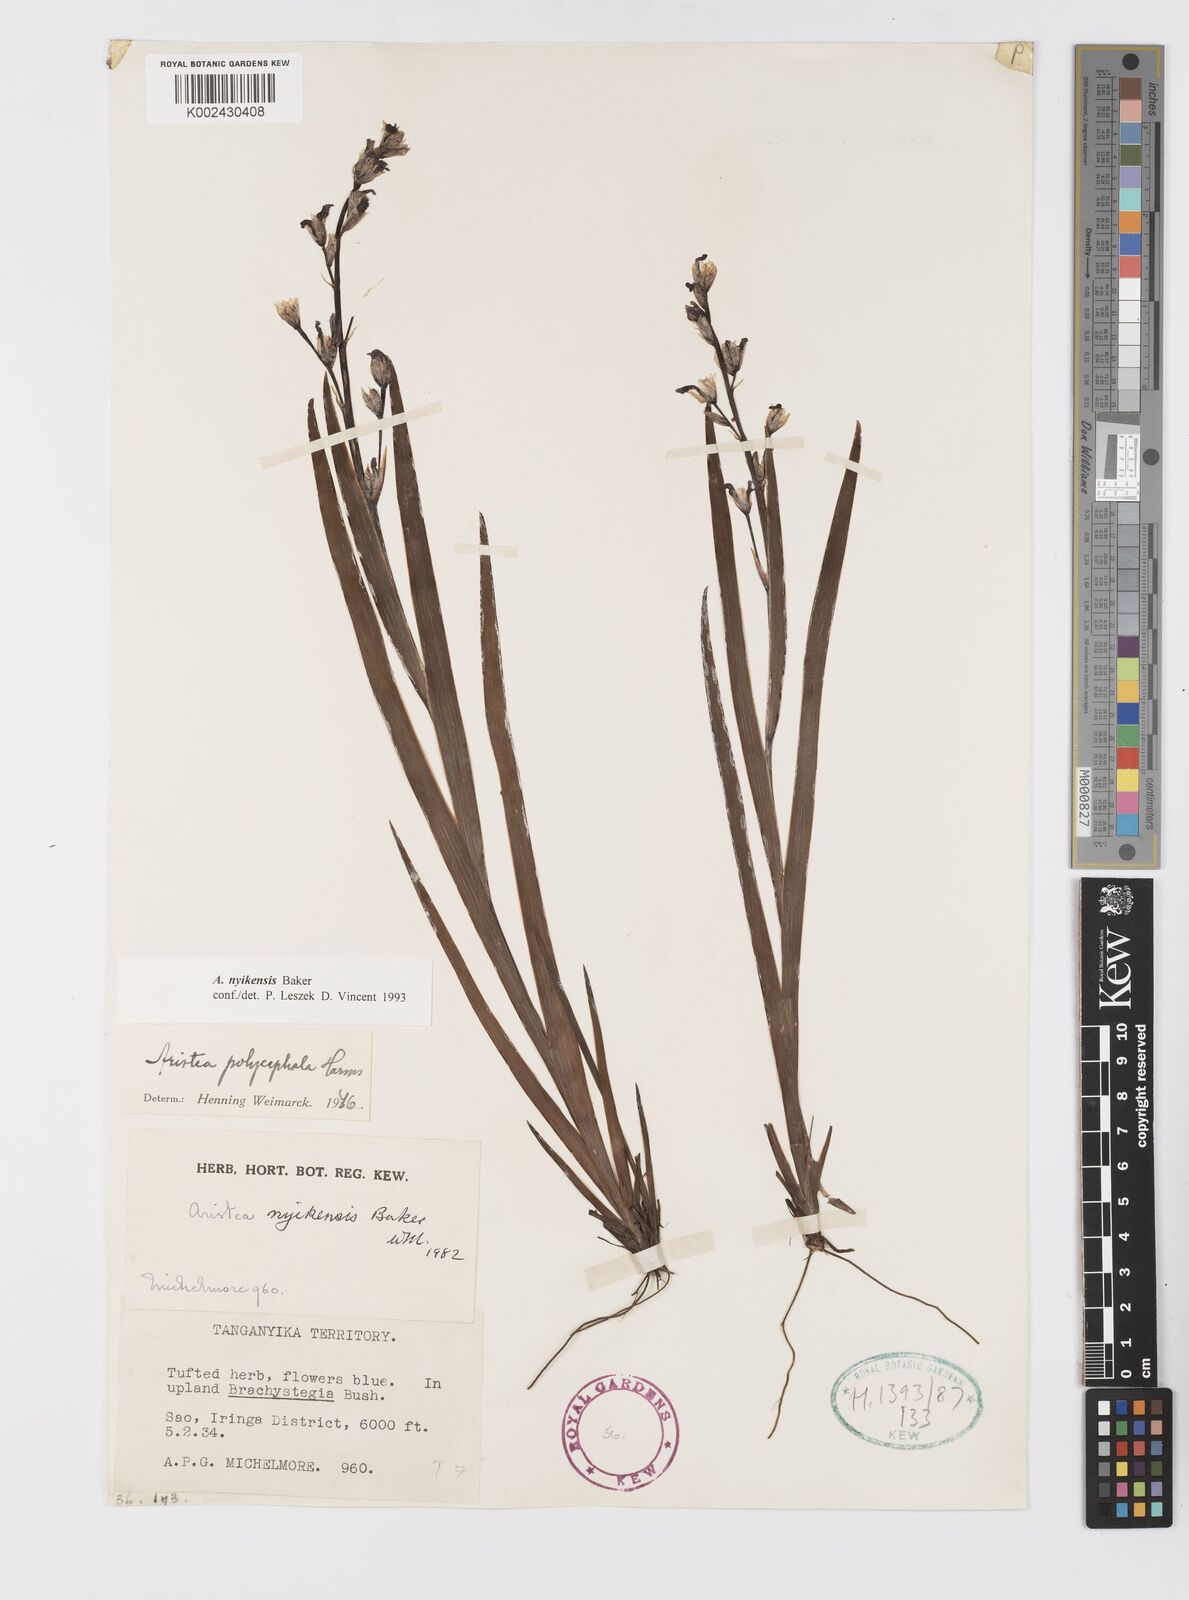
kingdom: Plantae
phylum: Tracheophyta
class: Liliopsida
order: Asparagales
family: Iridaceae
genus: Aristea
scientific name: Aristea nyikensis
